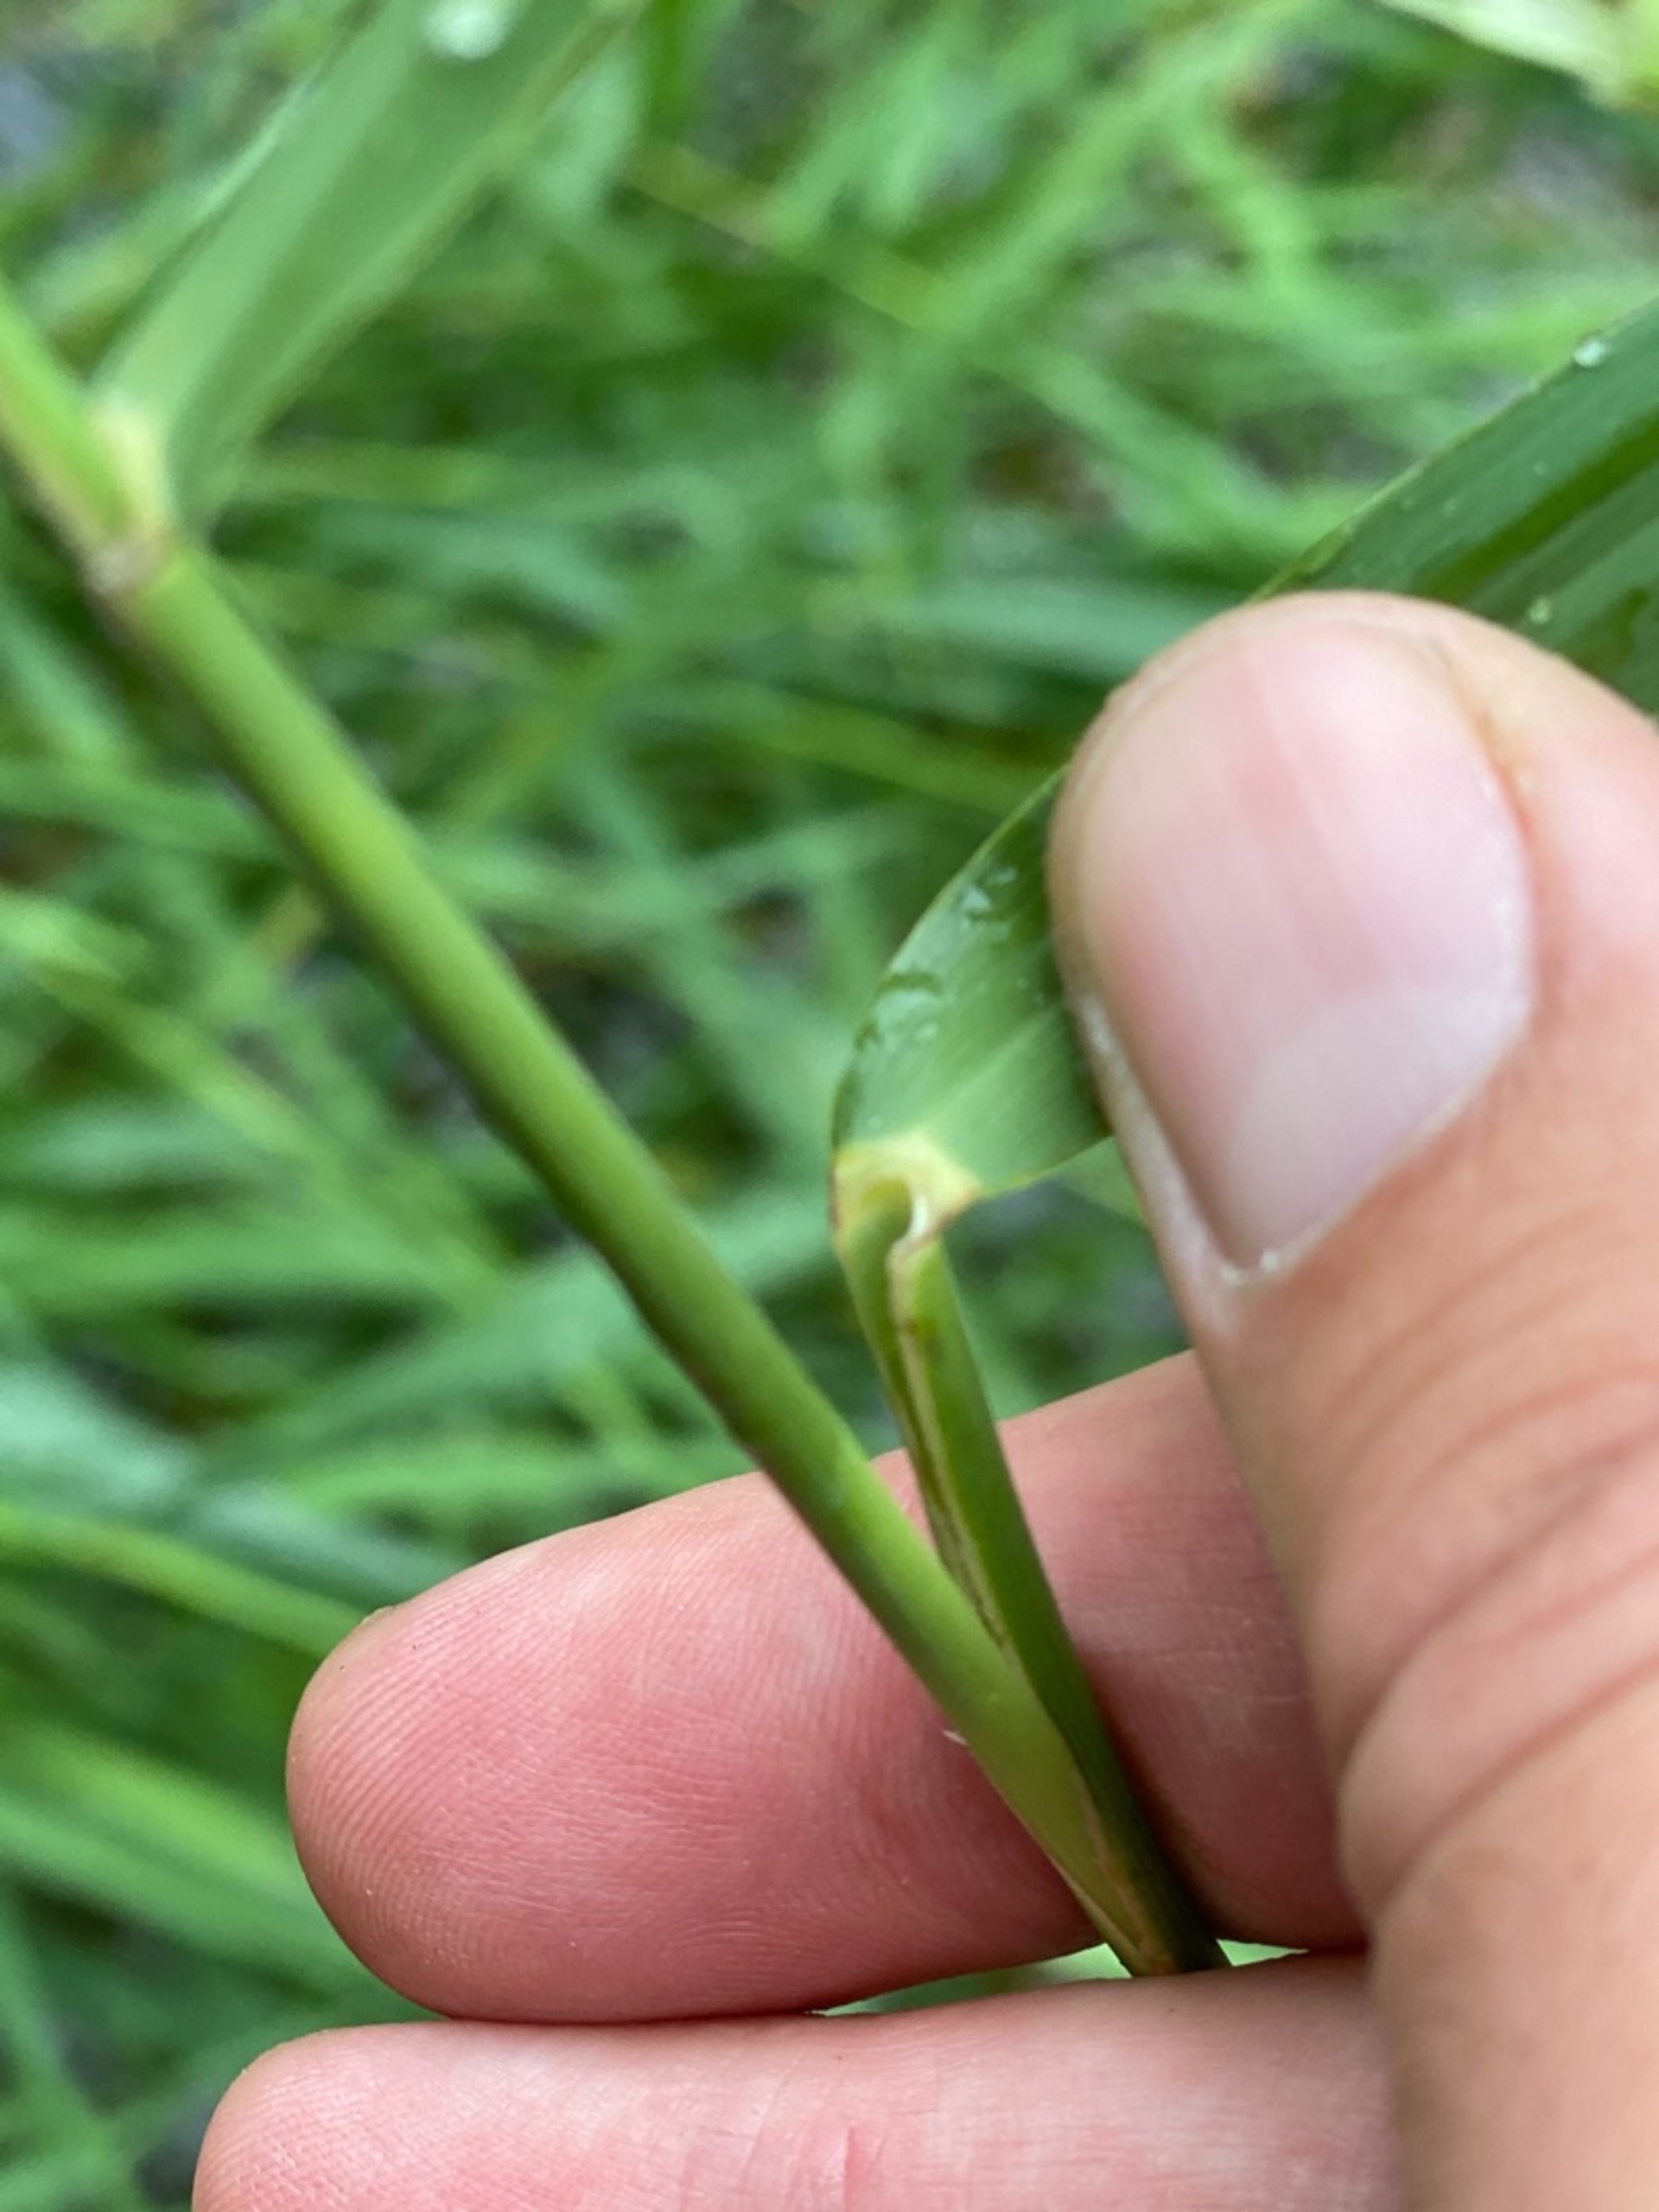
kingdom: Plantae
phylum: Tracheophyta
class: Liliopsida
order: Poales
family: Poaceae
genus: Phragmites
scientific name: Phragmites australis
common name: Tagrør
